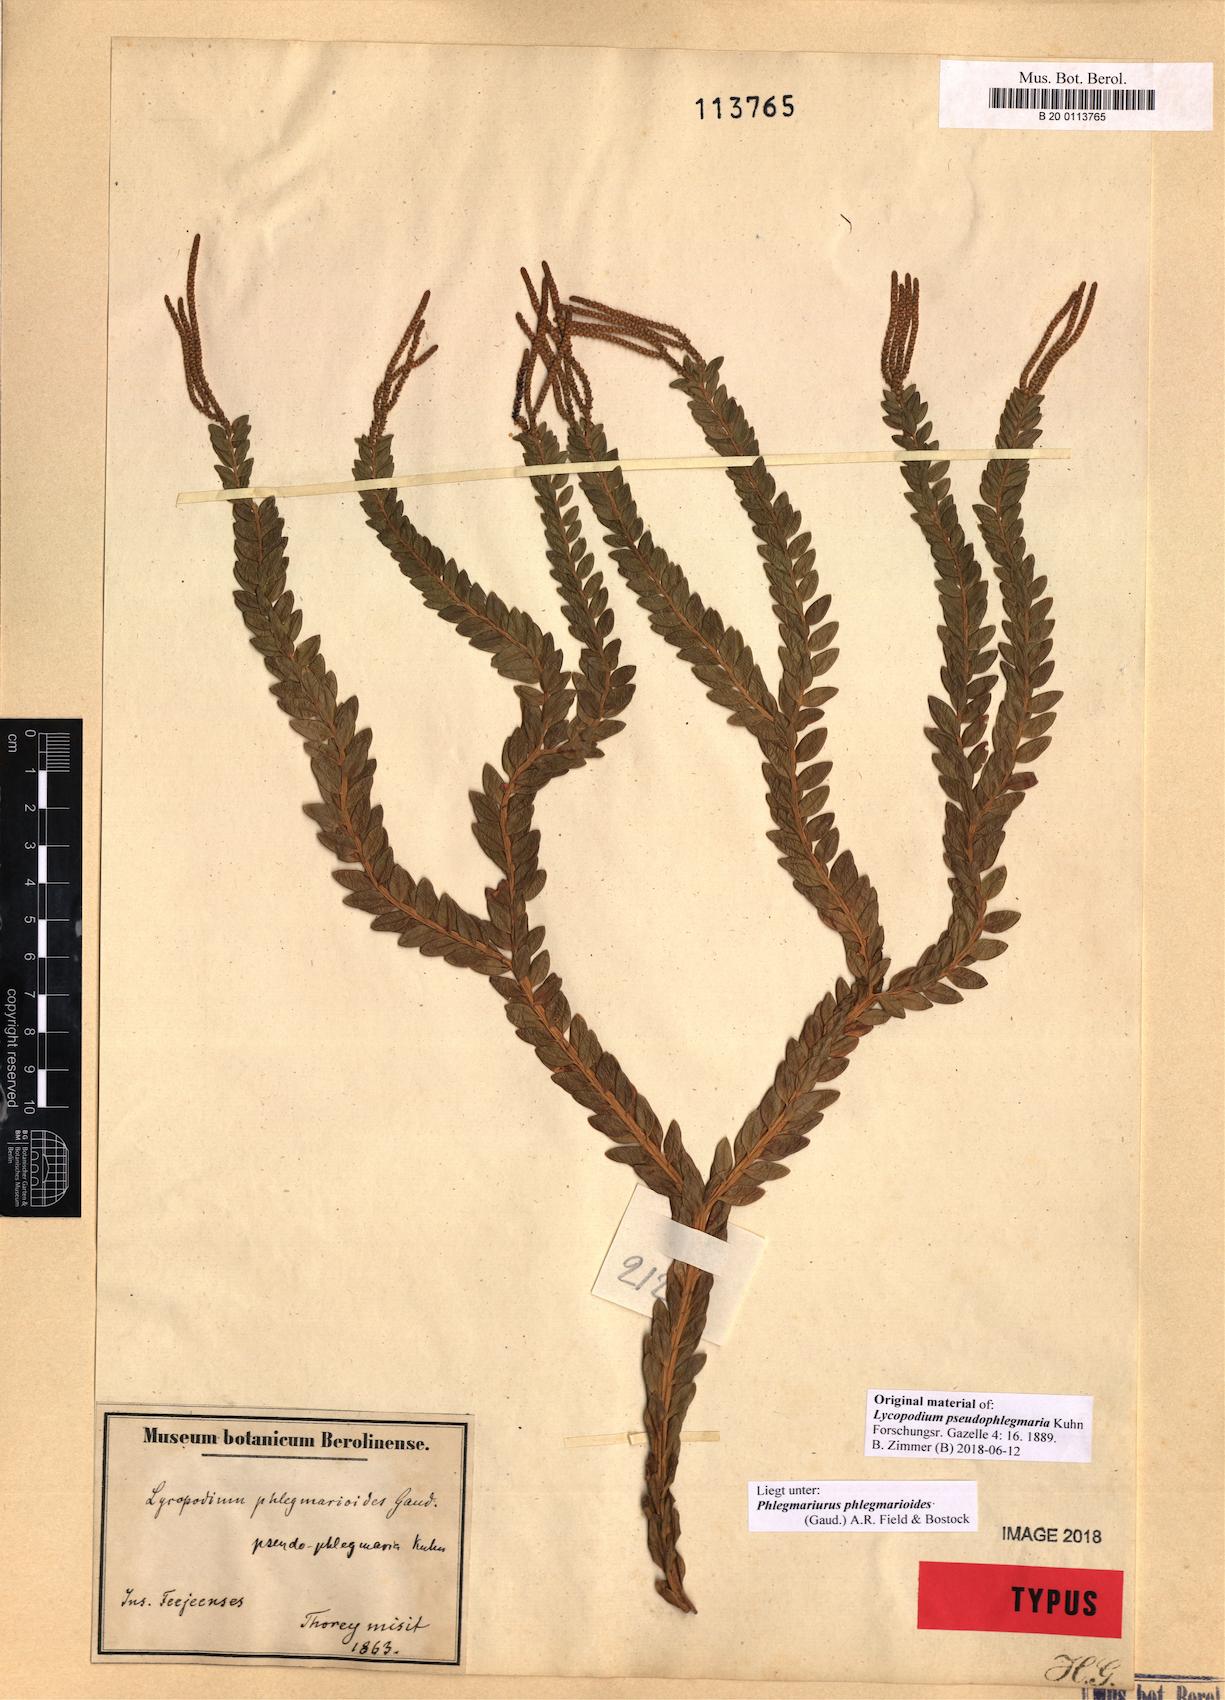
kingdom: Plantae
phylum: Tracheophyta
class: Lycopodiopsida
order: Lycopodiales
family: Lycopodiaceae
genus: Phlegmariurus
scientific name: Phlegmariurus phlegmarioides
